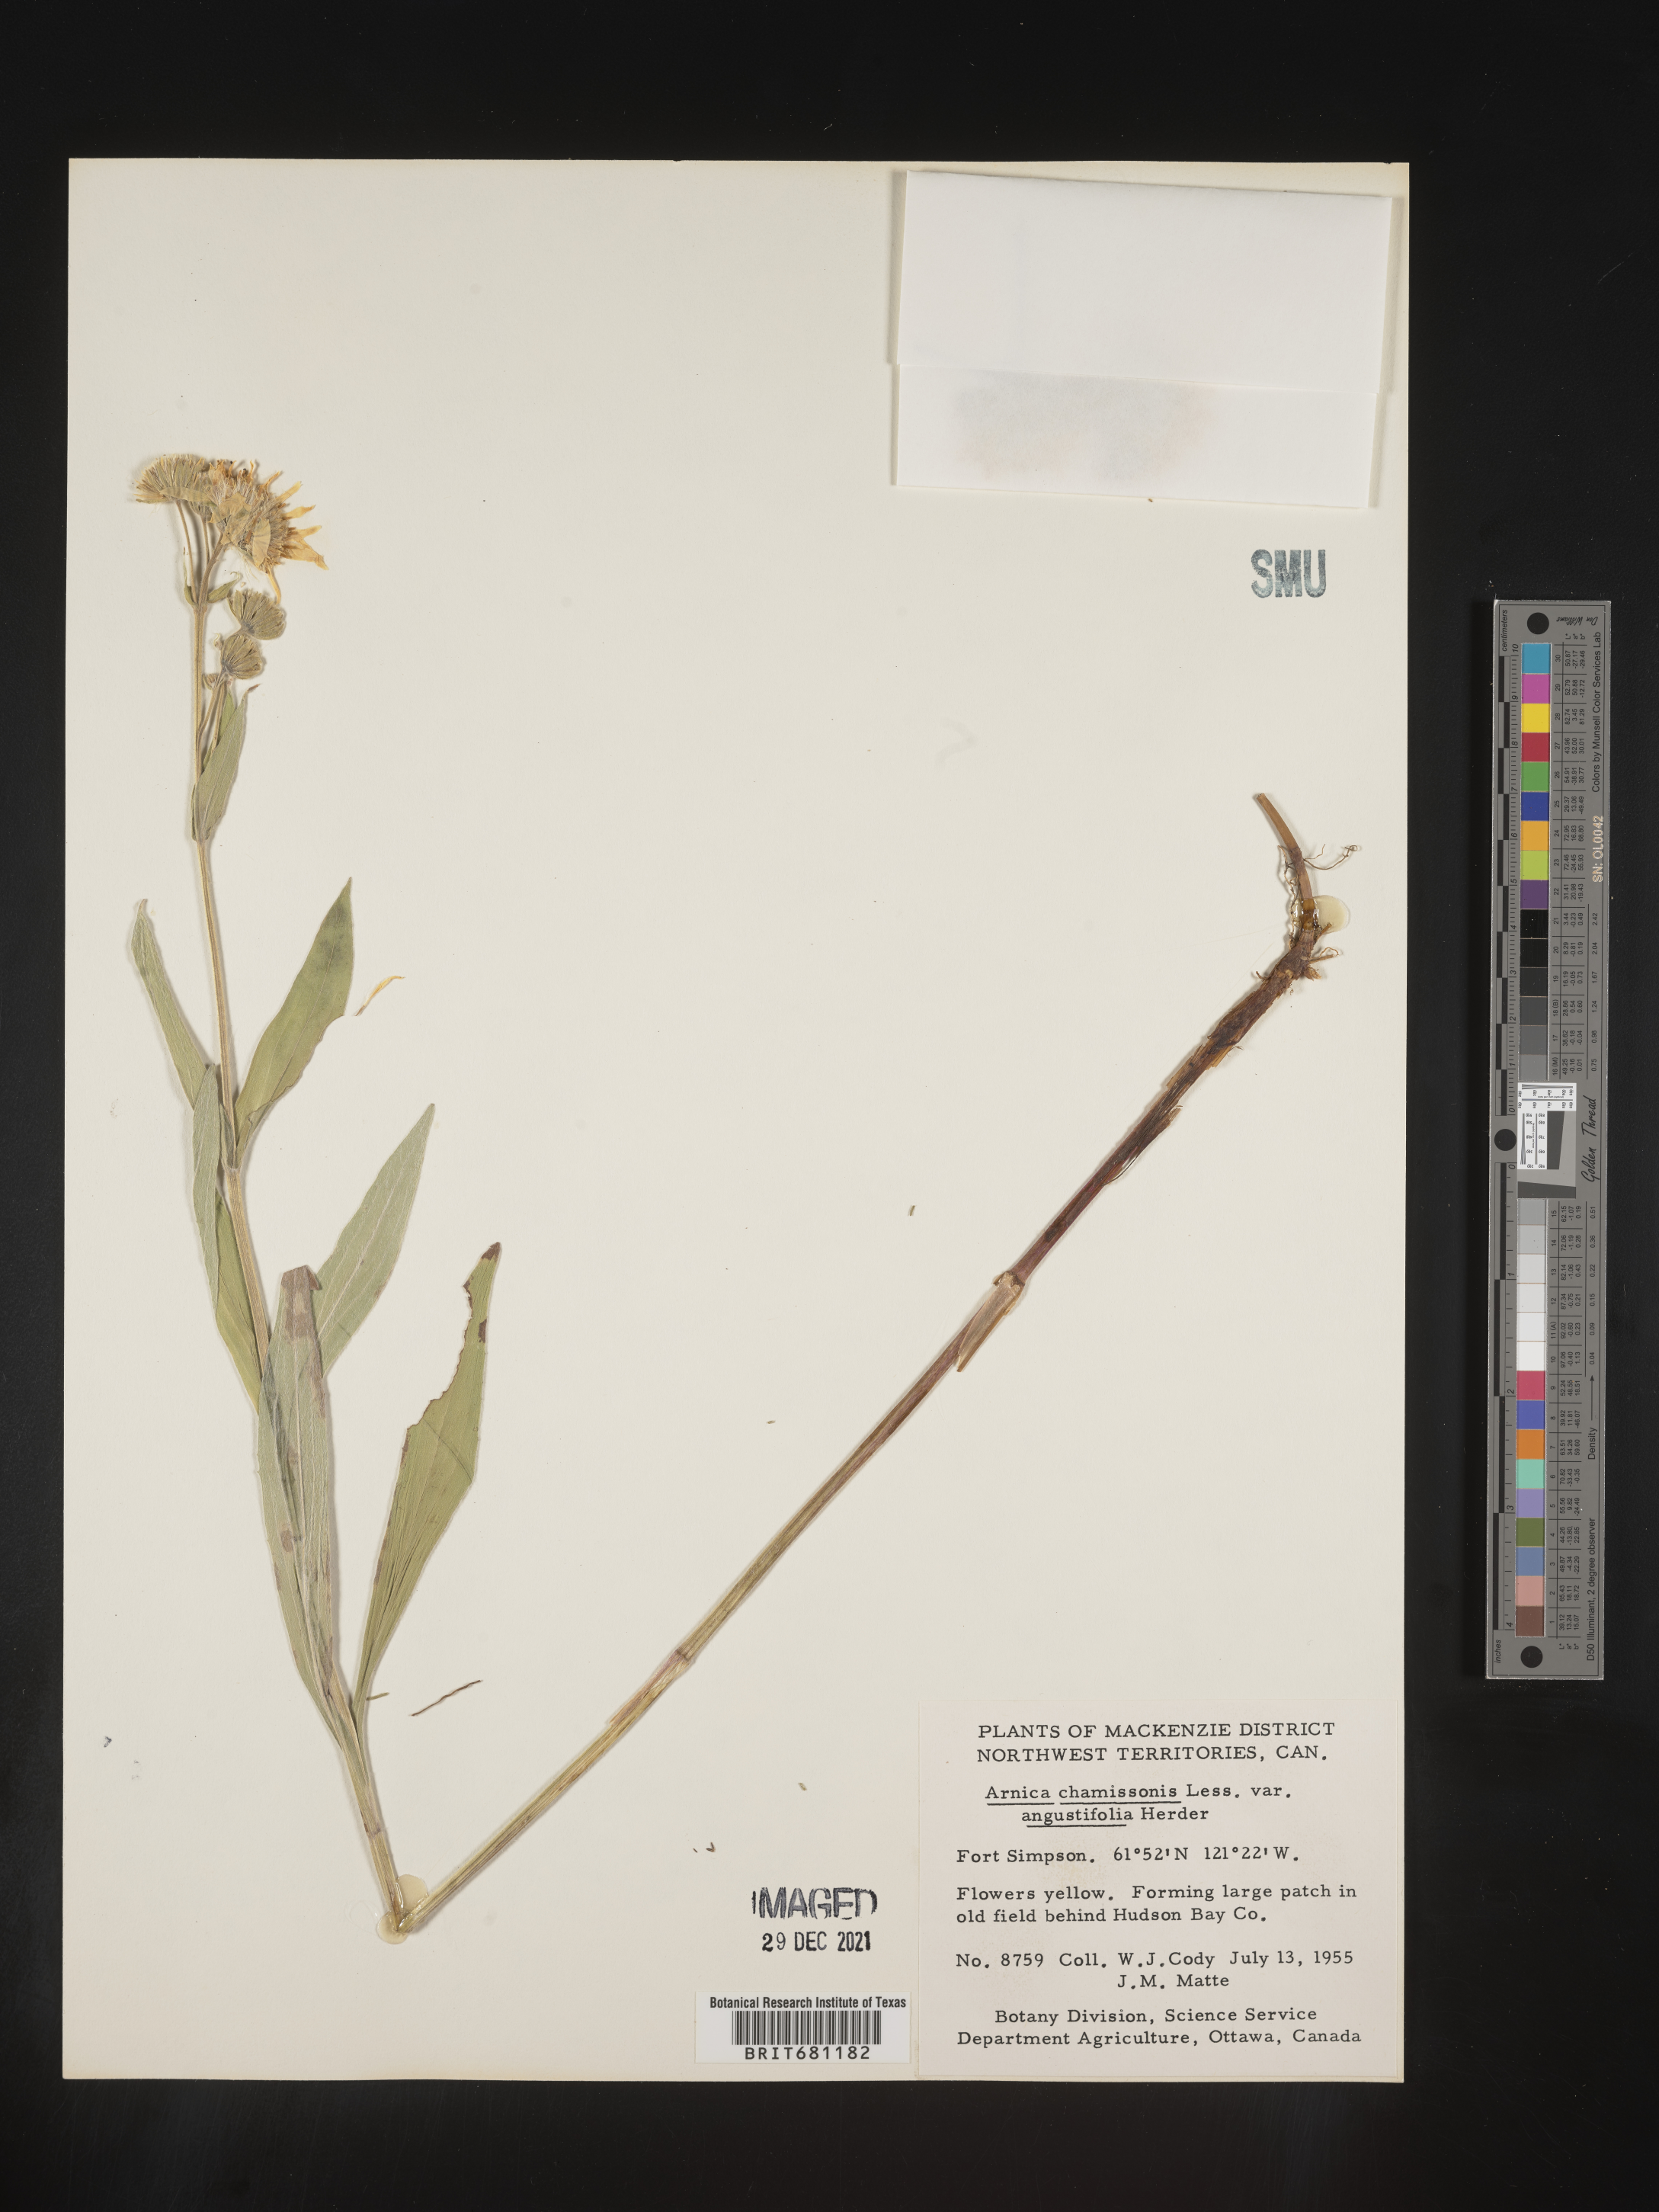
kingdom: Plantae
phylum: Tracheophyta
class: Magnoliopsida
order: Asterales
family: Asteraceae
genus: Arnica
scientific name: Arnica chamissonis
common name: Leafy arnica
